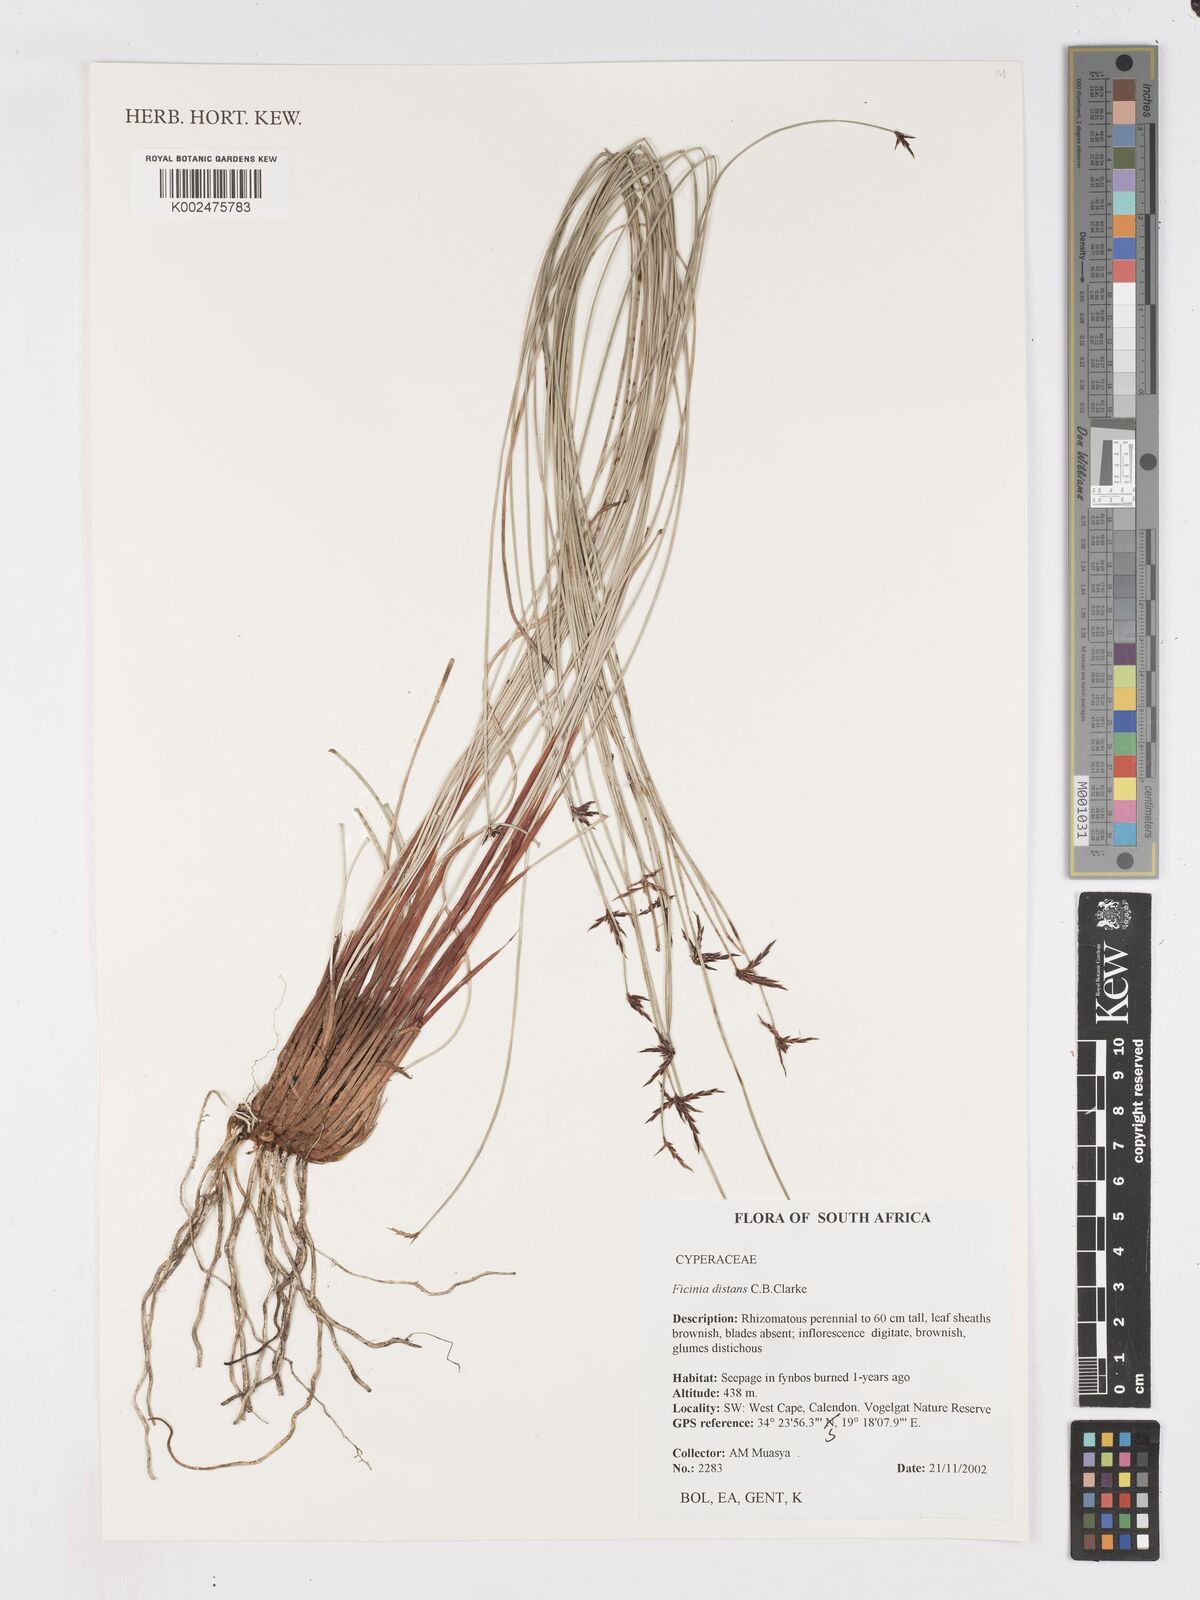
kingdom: Plantae
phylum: Tracheophyta
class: Liliopsida
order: Poales
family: Cyperaceae
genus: Ficinia
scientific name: Ficinia distans
